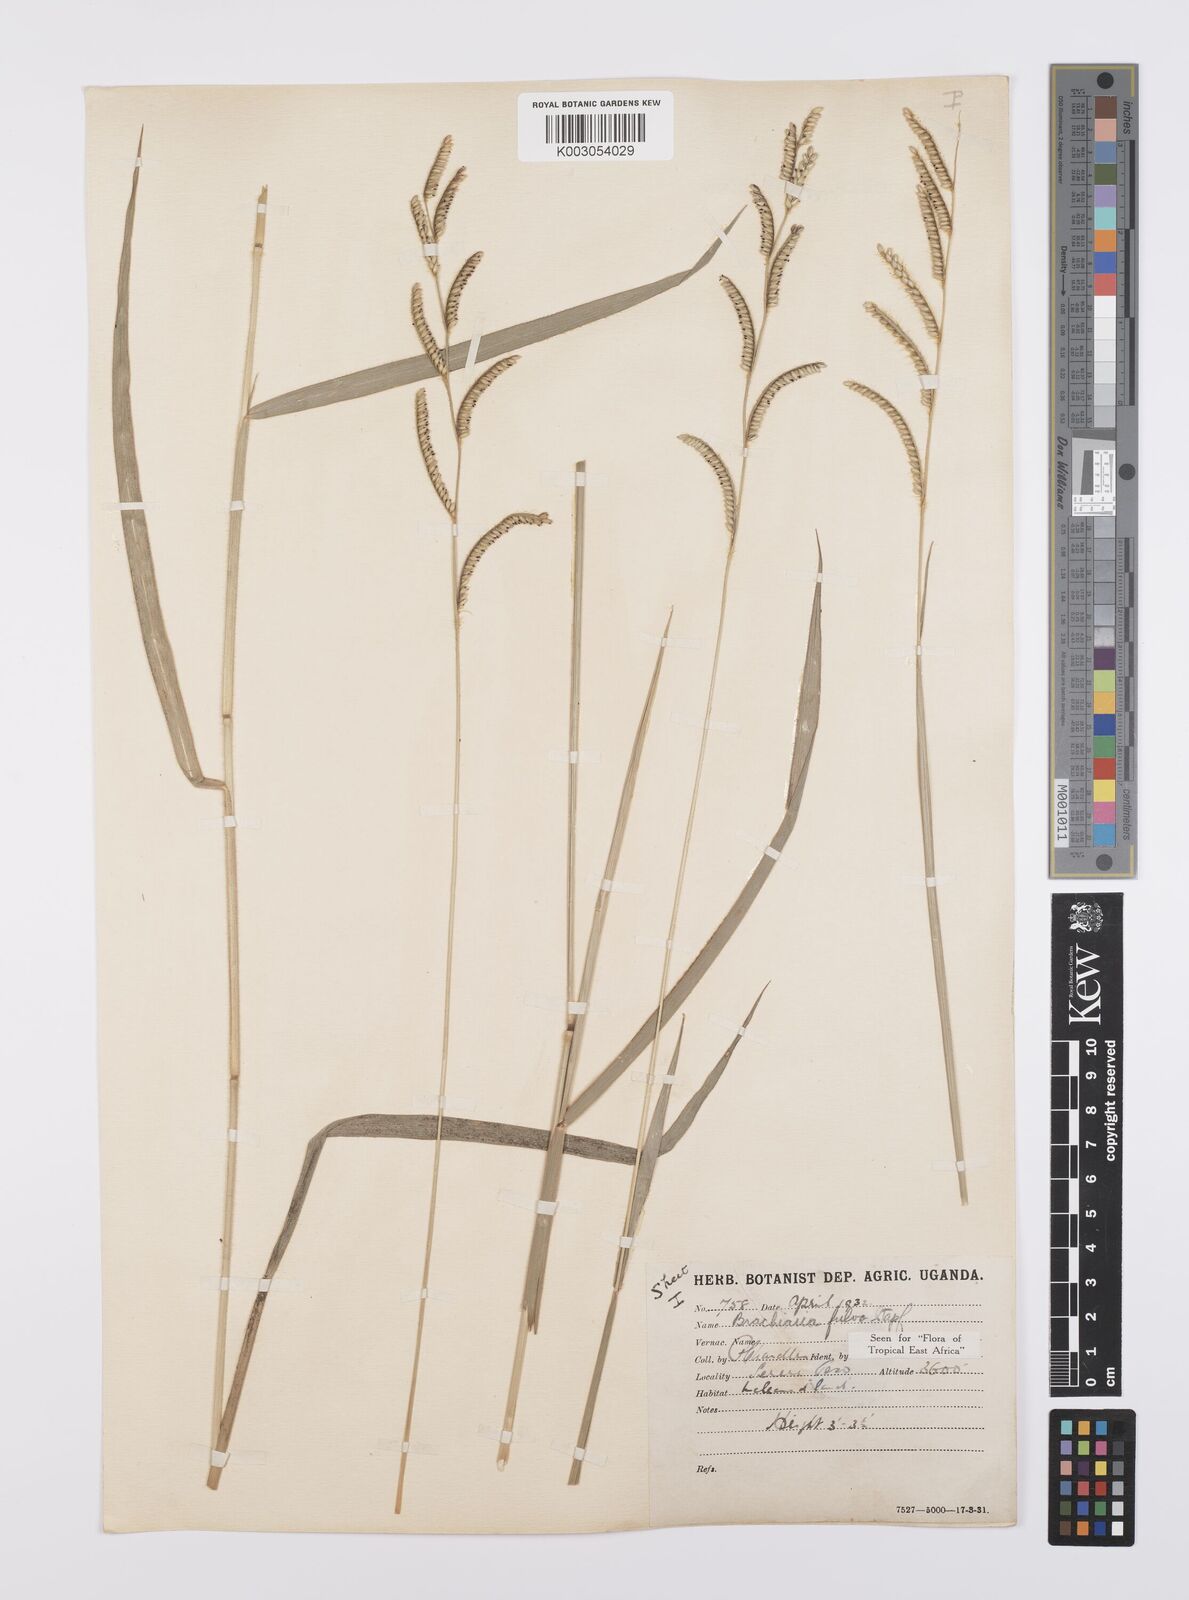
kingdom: Plantae
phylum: Tracheophyta
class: Liliopsida
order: Poales
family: Poaceae
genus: Urochloa
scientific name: Urochloa jubata
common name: Buffalograss
